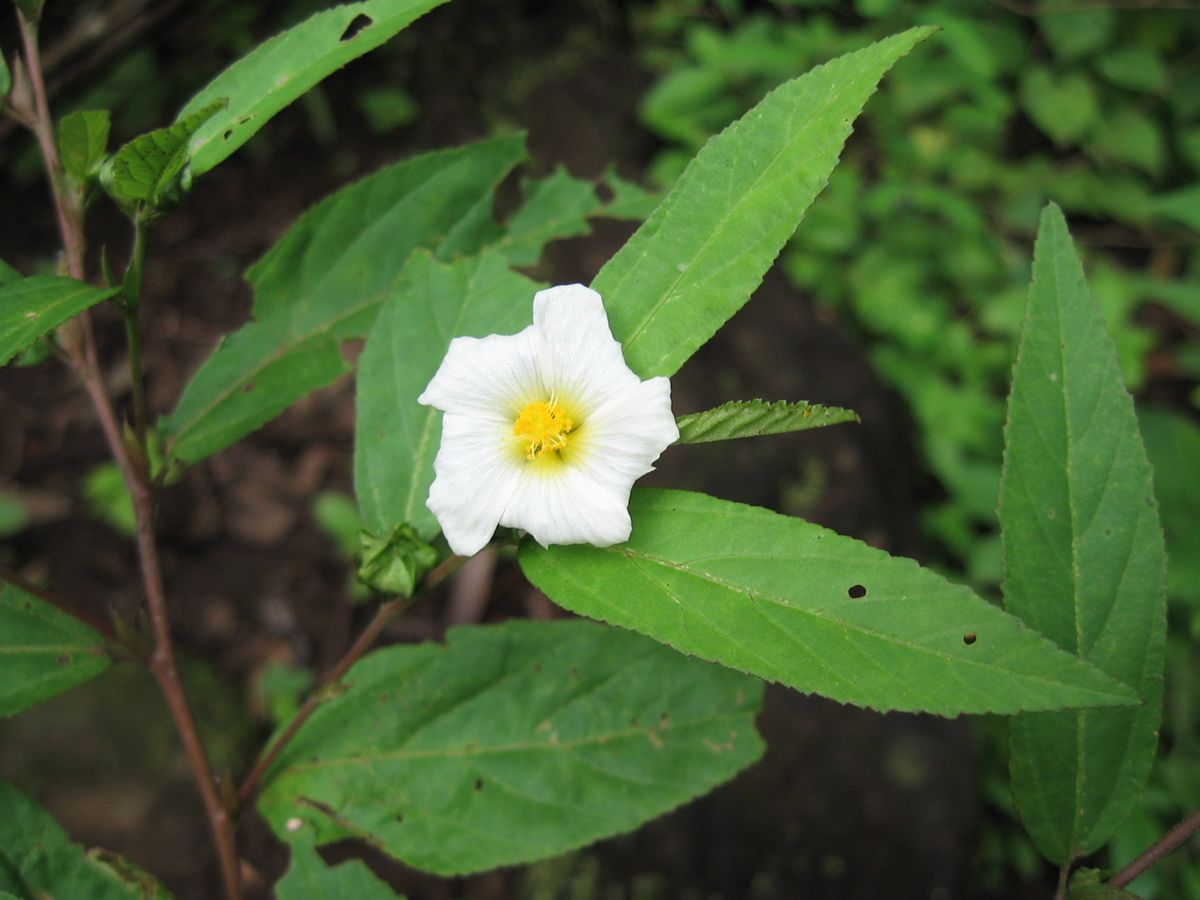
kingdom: Plantae
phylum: Tracheophyta
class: Magnoliopsida
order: Malvales
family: Malvaceae
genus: Sida
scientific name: Sida
